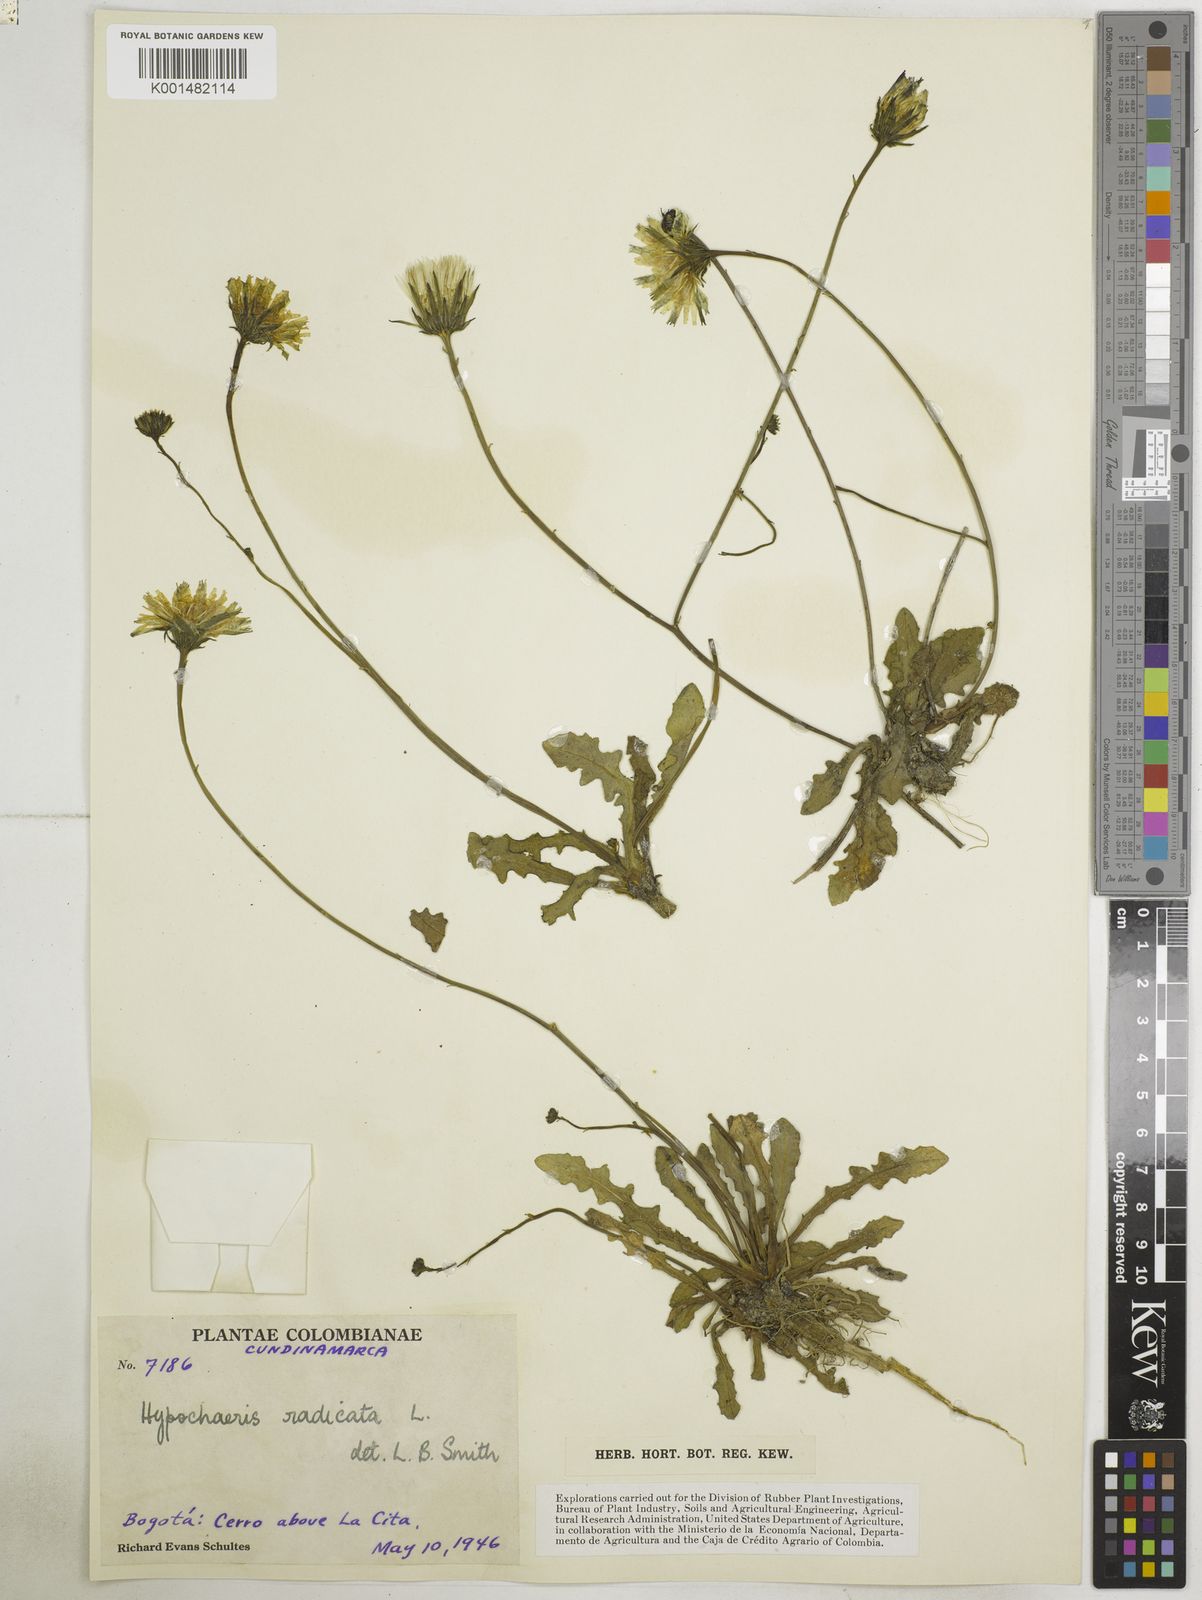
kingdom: Plantae
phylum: Tracheophyta
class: Magnoliopsida
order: Asterales
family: Asteraceae
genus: Hypochaeris
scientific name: Hypochaeris radicata
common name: Flatweed
